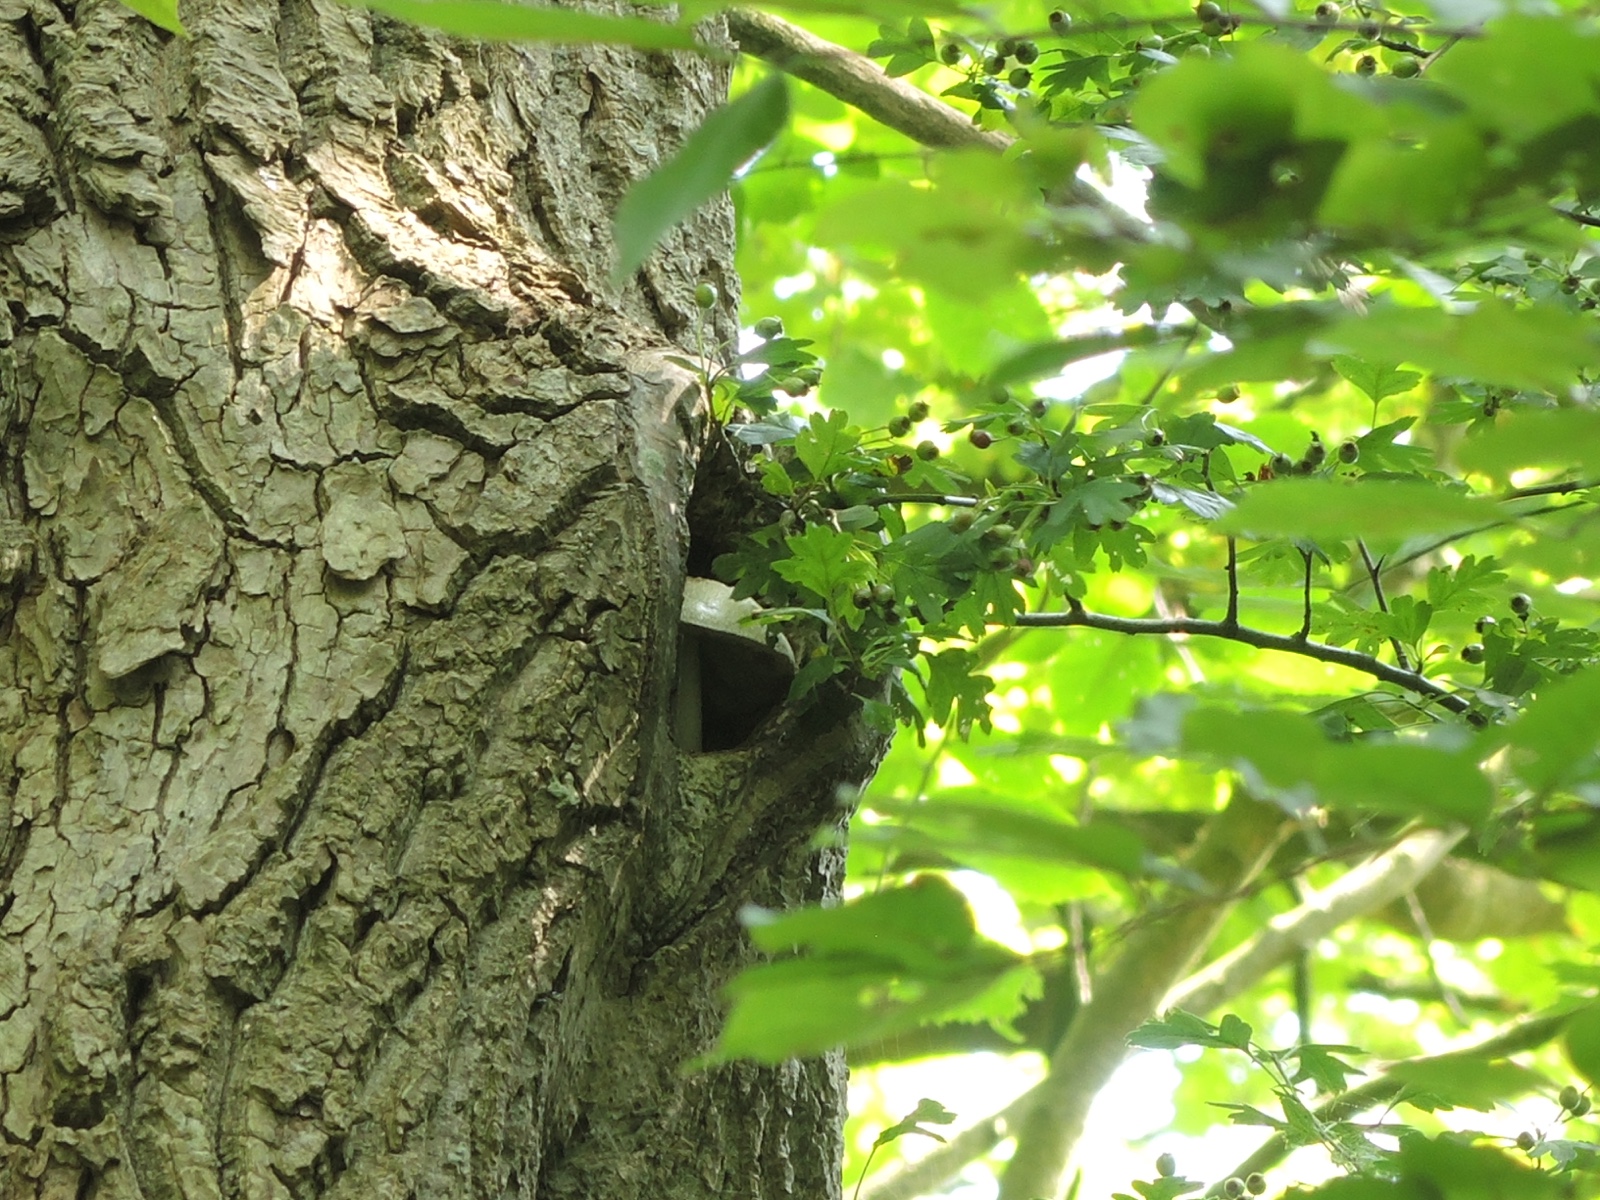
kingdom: Fungi
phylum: Basidiomycota
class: Agaricomycetes
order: Agaricales
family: Pluteaceae
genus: Volvariella
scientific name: Volvariella bombycina
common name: silkehåret posesvamp
